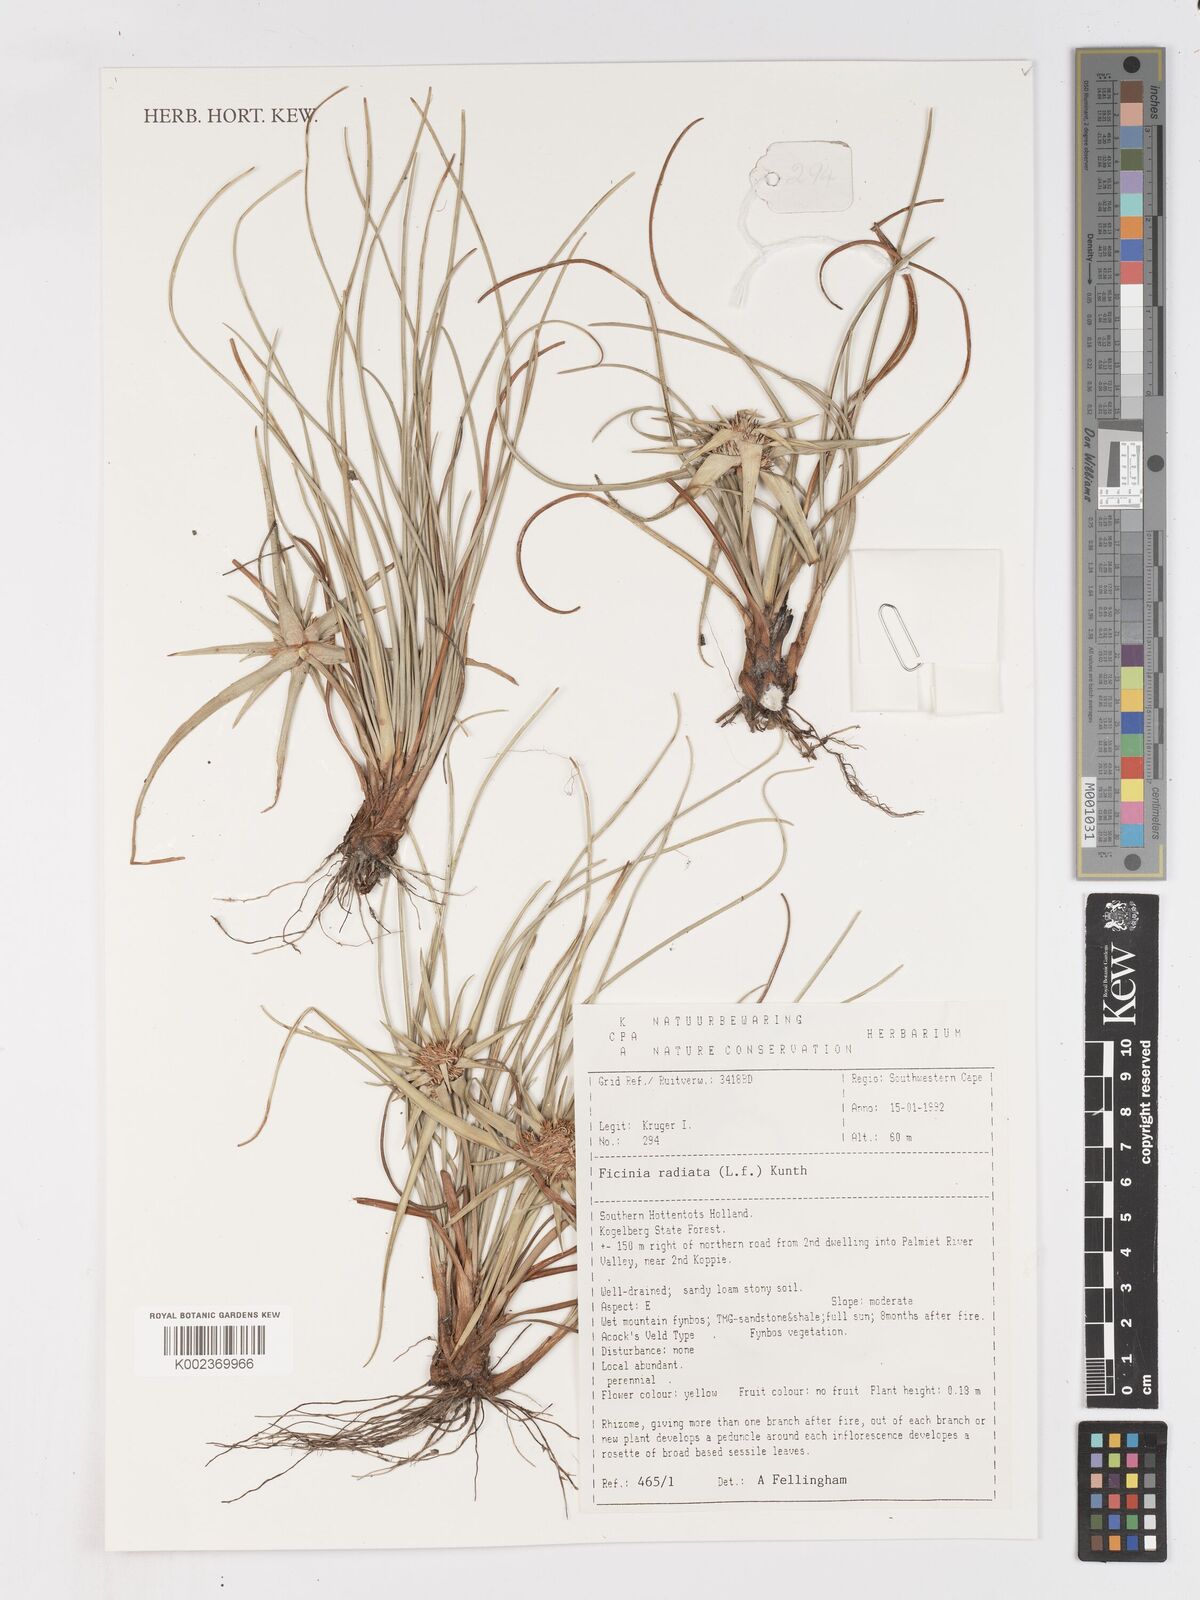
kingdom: Plantae
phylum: Tracheophyta
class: Liliopsida
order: Poales
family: Cyperaceae
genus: Ficinia
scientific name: Ficinia radiata
